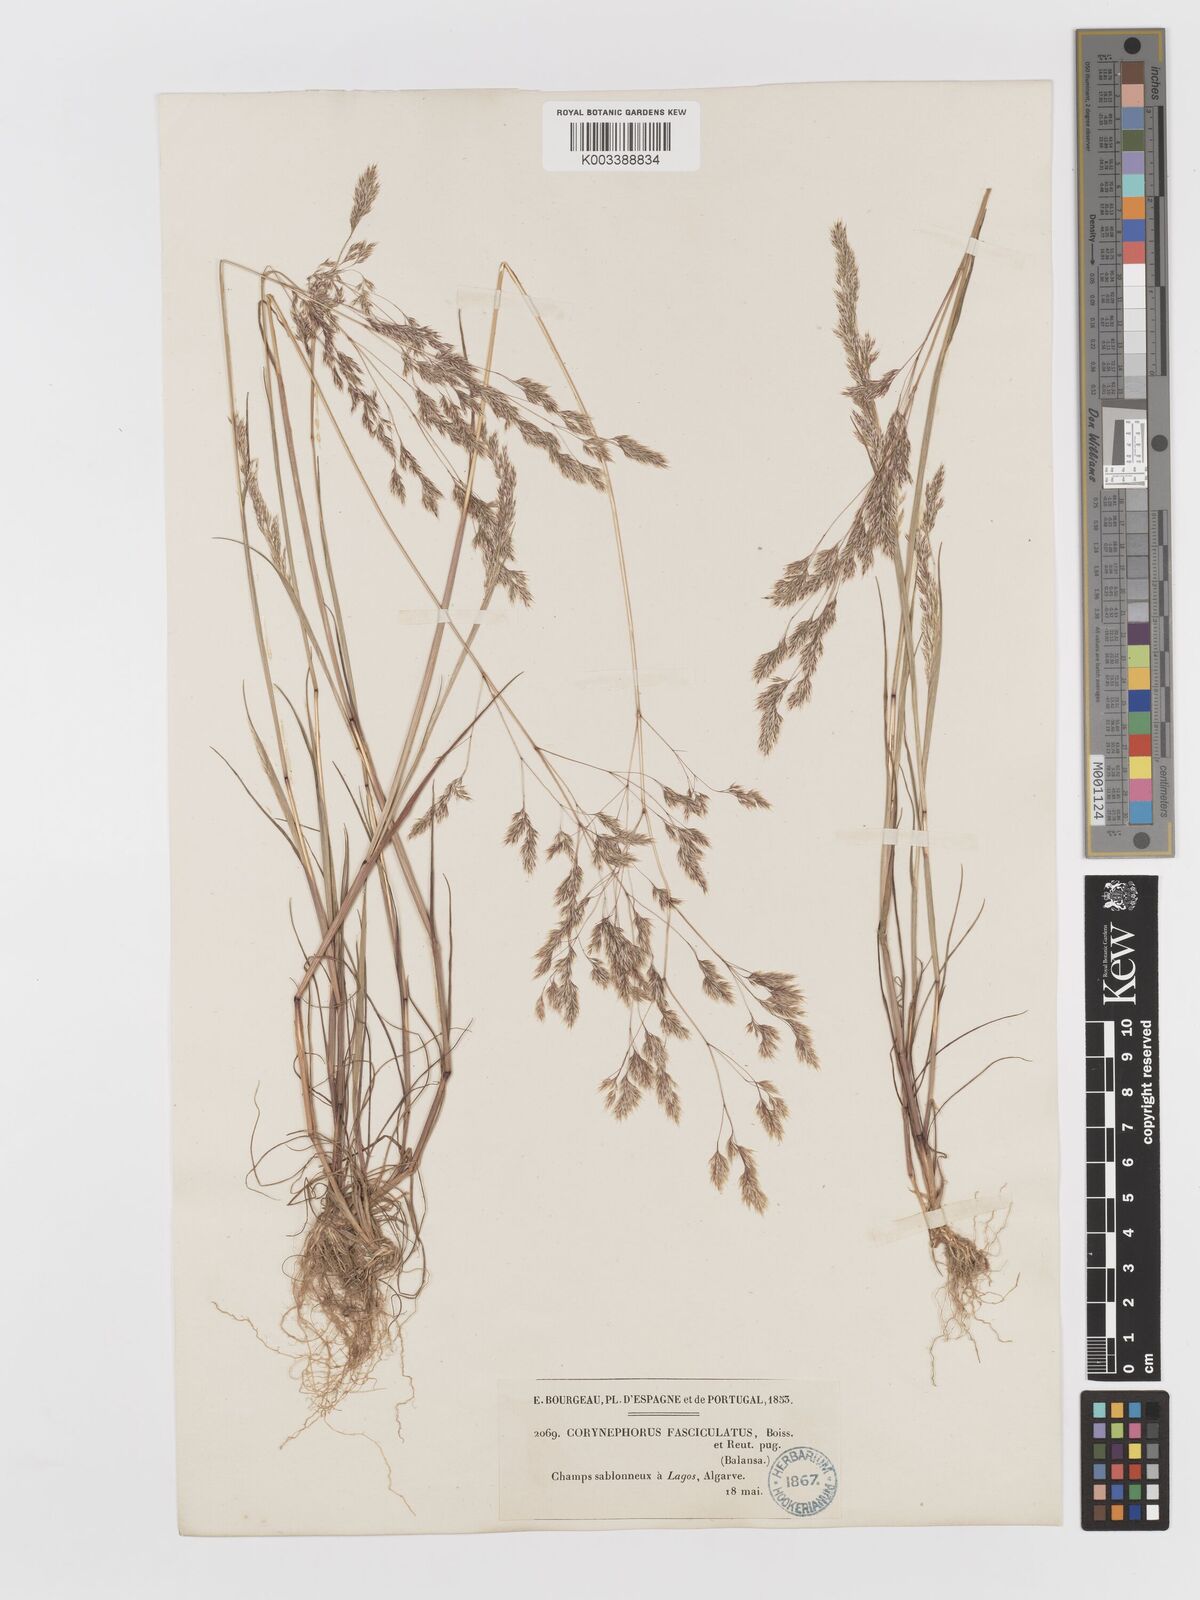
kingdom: Plantae
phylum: Tracheophyta
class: Liliopsida
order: Poales
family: Poaceae
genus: Corynephorus
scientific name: Corynephorus divaricatus
